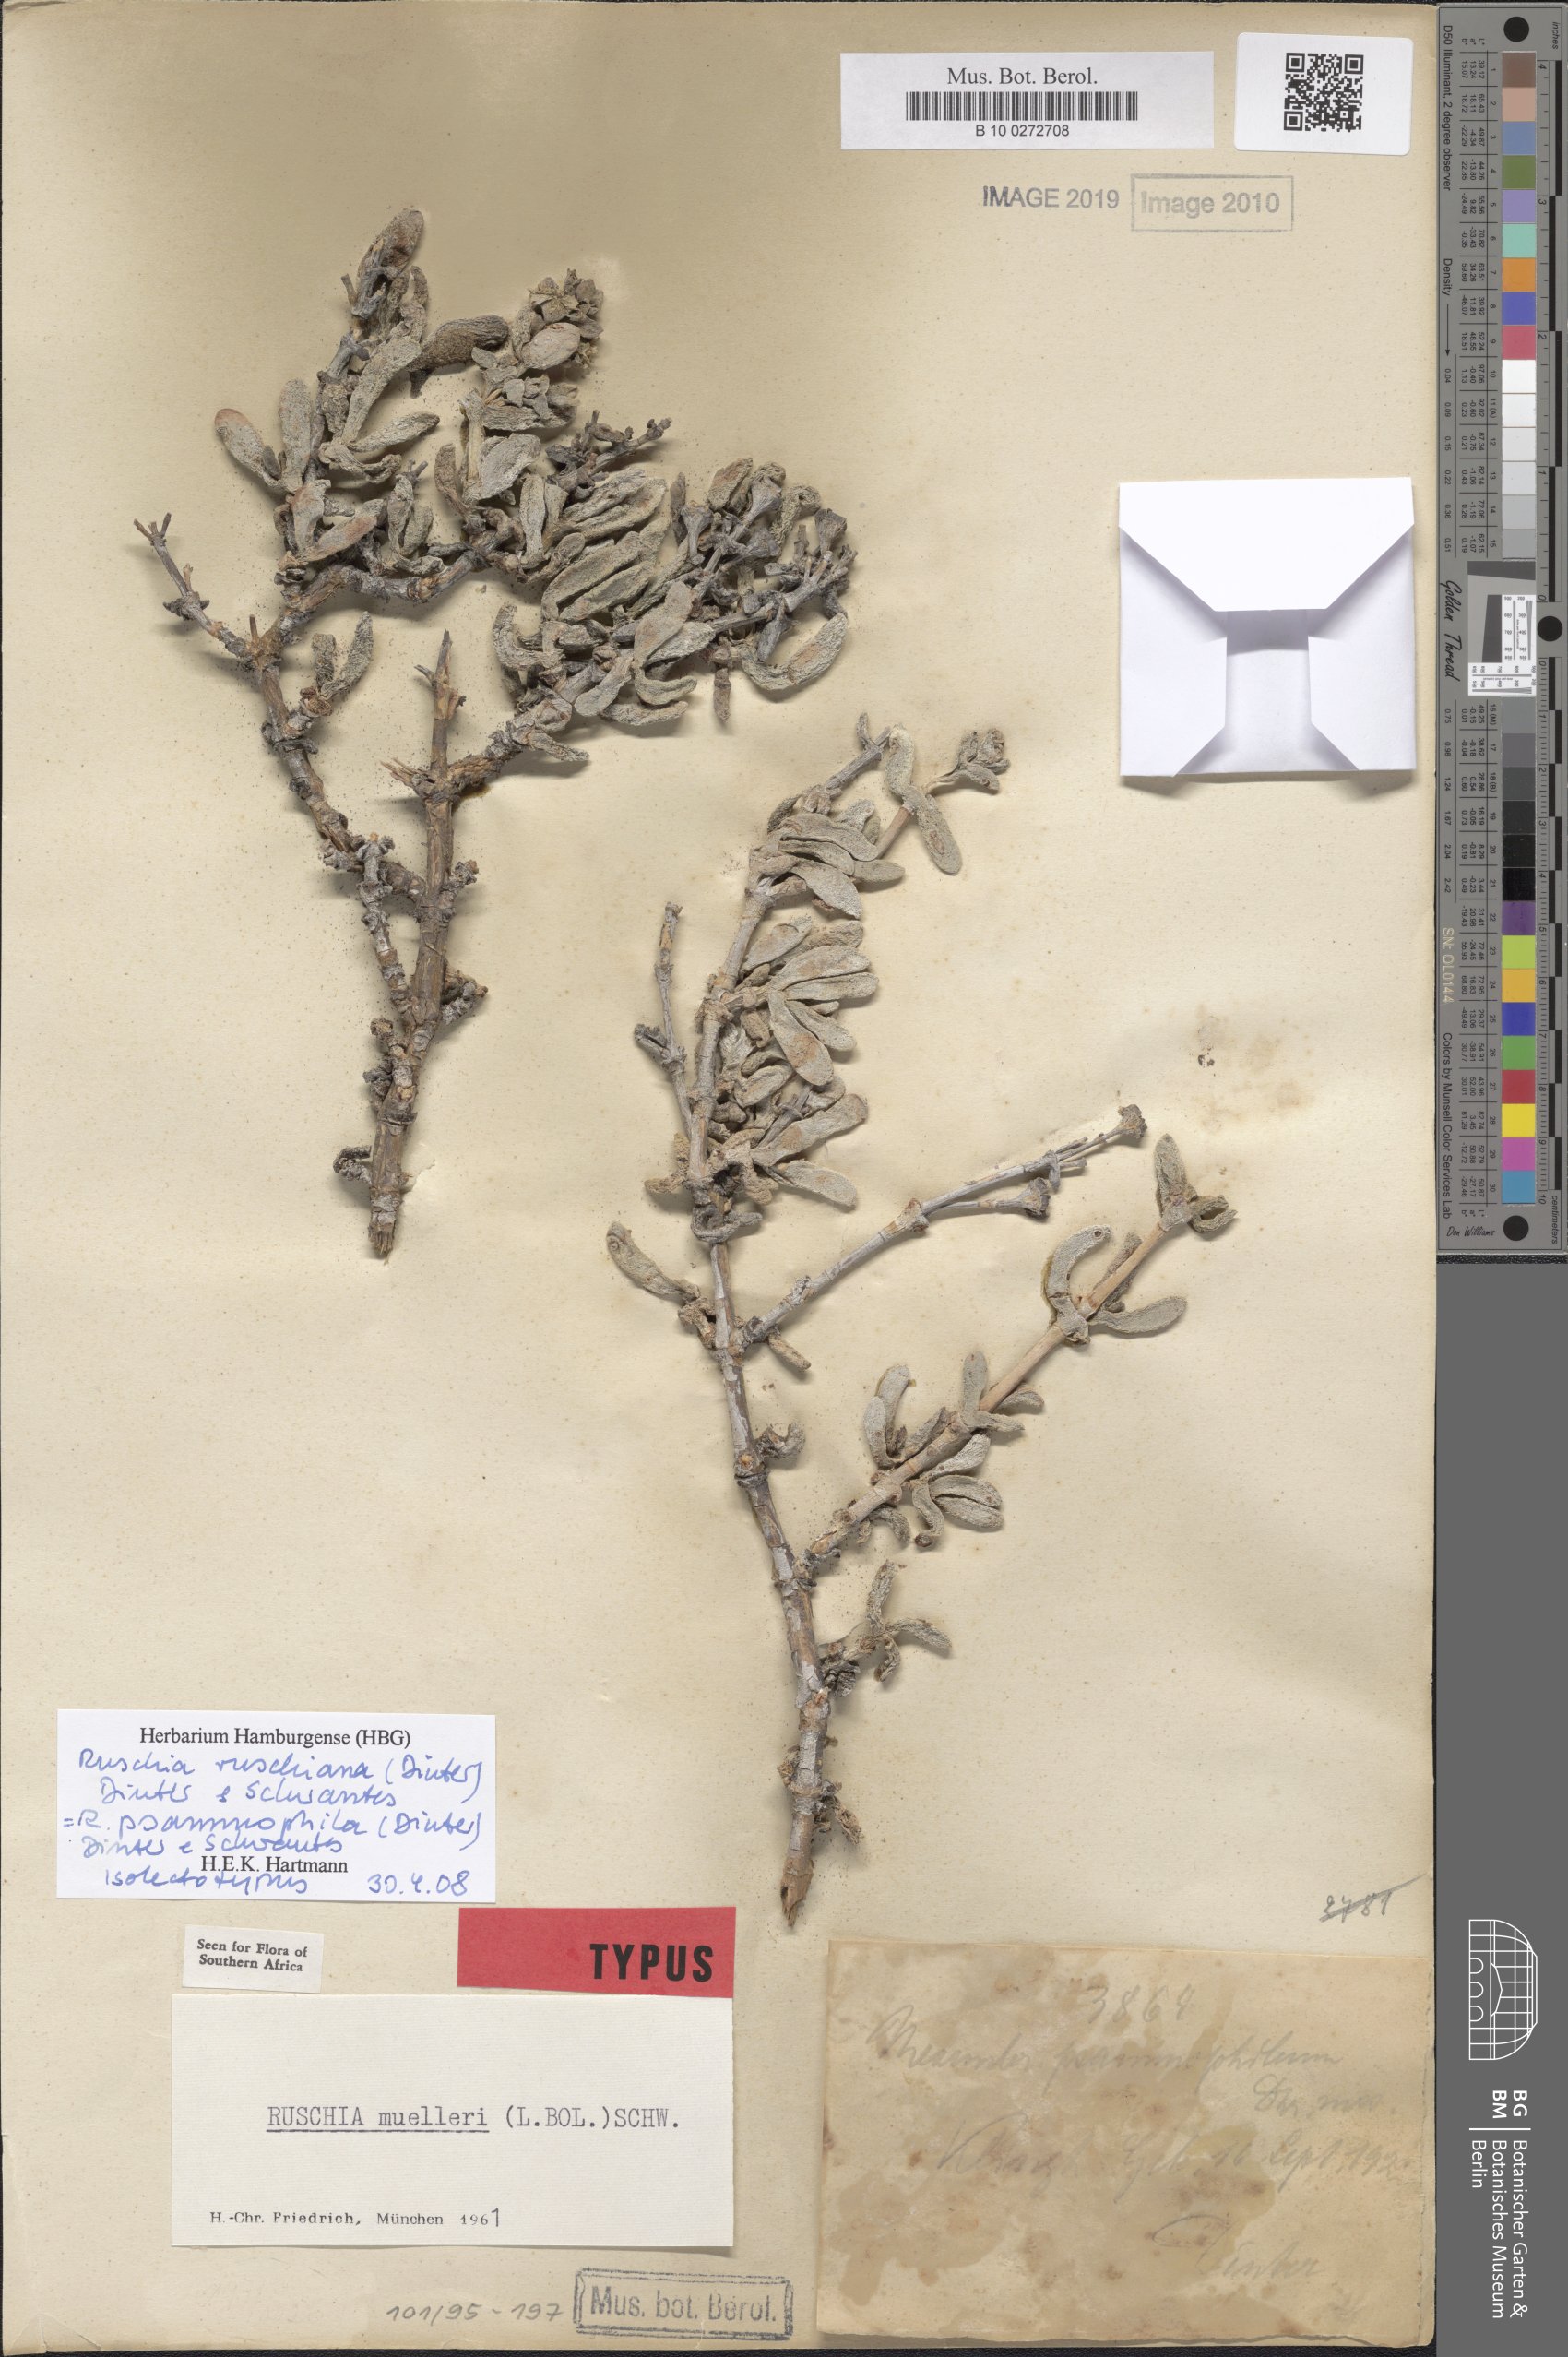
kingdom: Plantae
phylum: Tracheophyta
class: Magnoliopsida
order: Caryophyllales
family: Aizoaceae
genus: Ruschia
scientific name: Ruschia ruschiana
